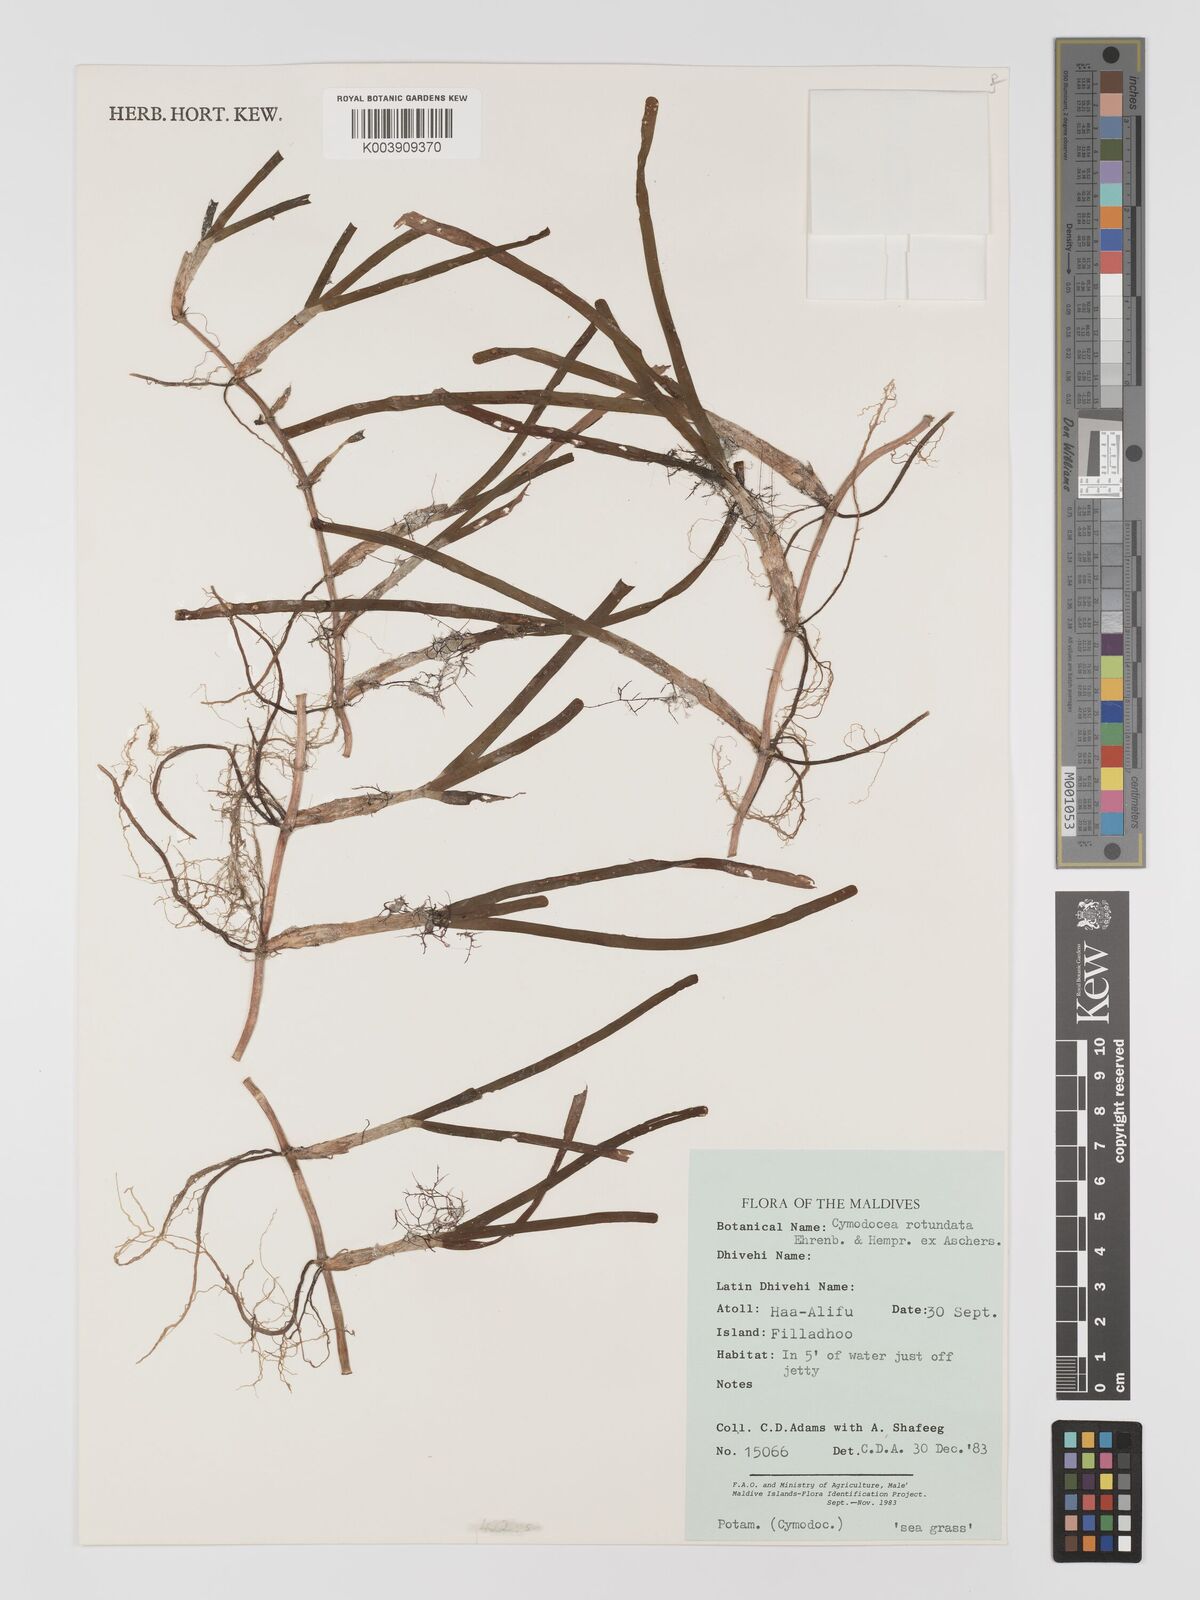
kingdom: Plantae
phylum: Tracheophyta
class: Liliopsida
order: Alismatales
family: Cymodoceaceae
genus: Cymodocea
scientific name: Cymodocea rotundata
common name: Species code: cr
